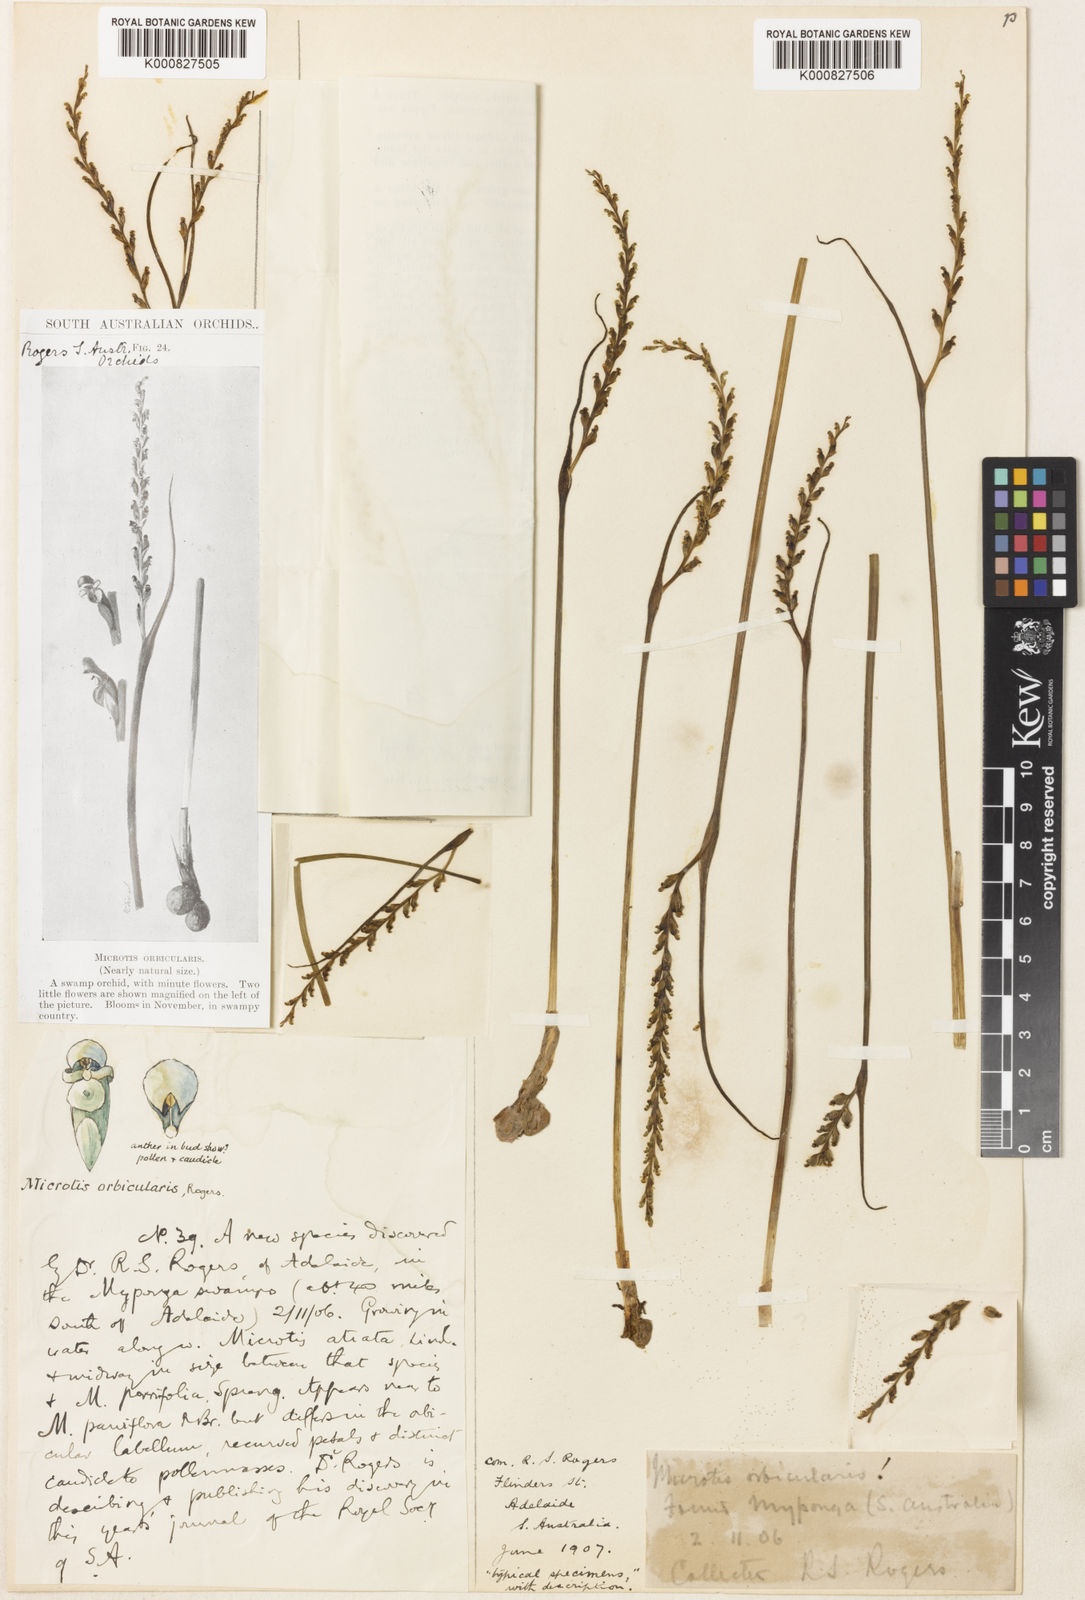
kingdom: Plantae
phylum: Tracheophyta
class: Liliopsida
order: Asparagales
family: Orchidaceae
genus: Microtis
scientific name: Microtis orbicularis
